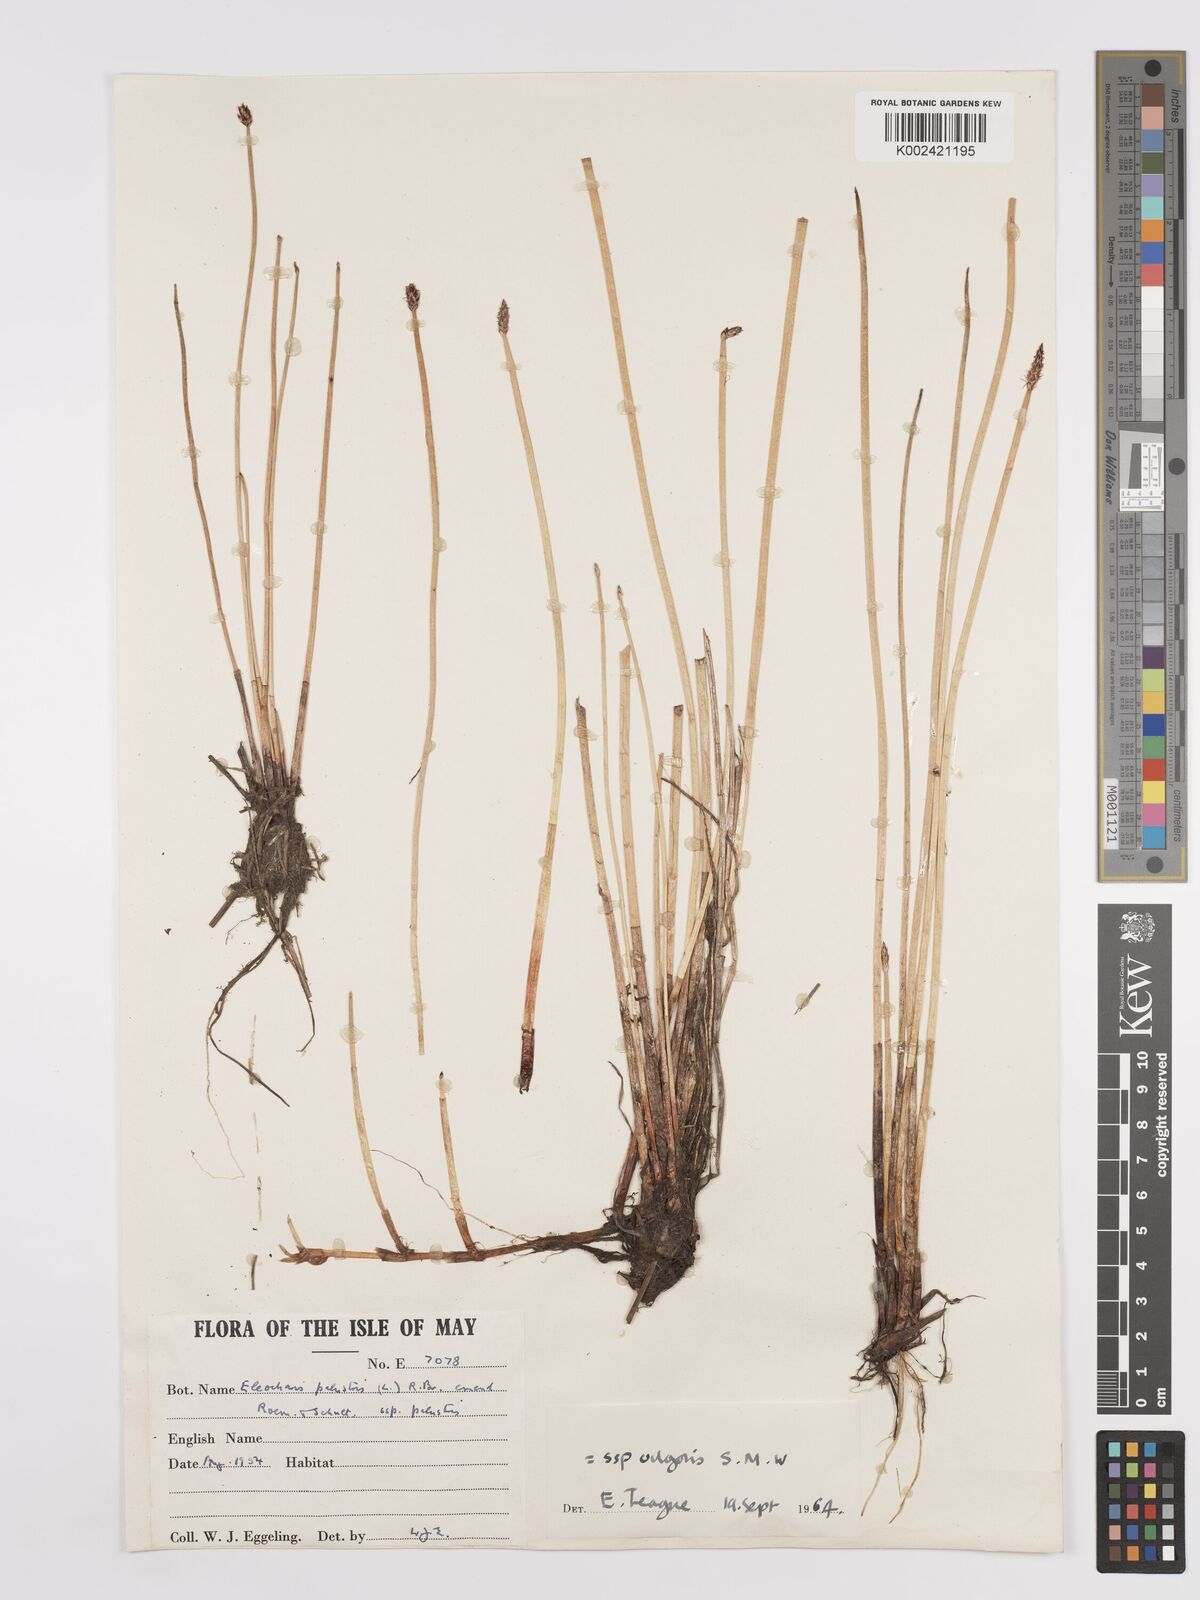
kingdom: Plantae
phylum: Tracheophyta
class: Liliopsida
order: Poales
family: Cyperaceae
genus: Eleocharis
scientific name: Eleocharis palustris
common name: Common spike-rush
